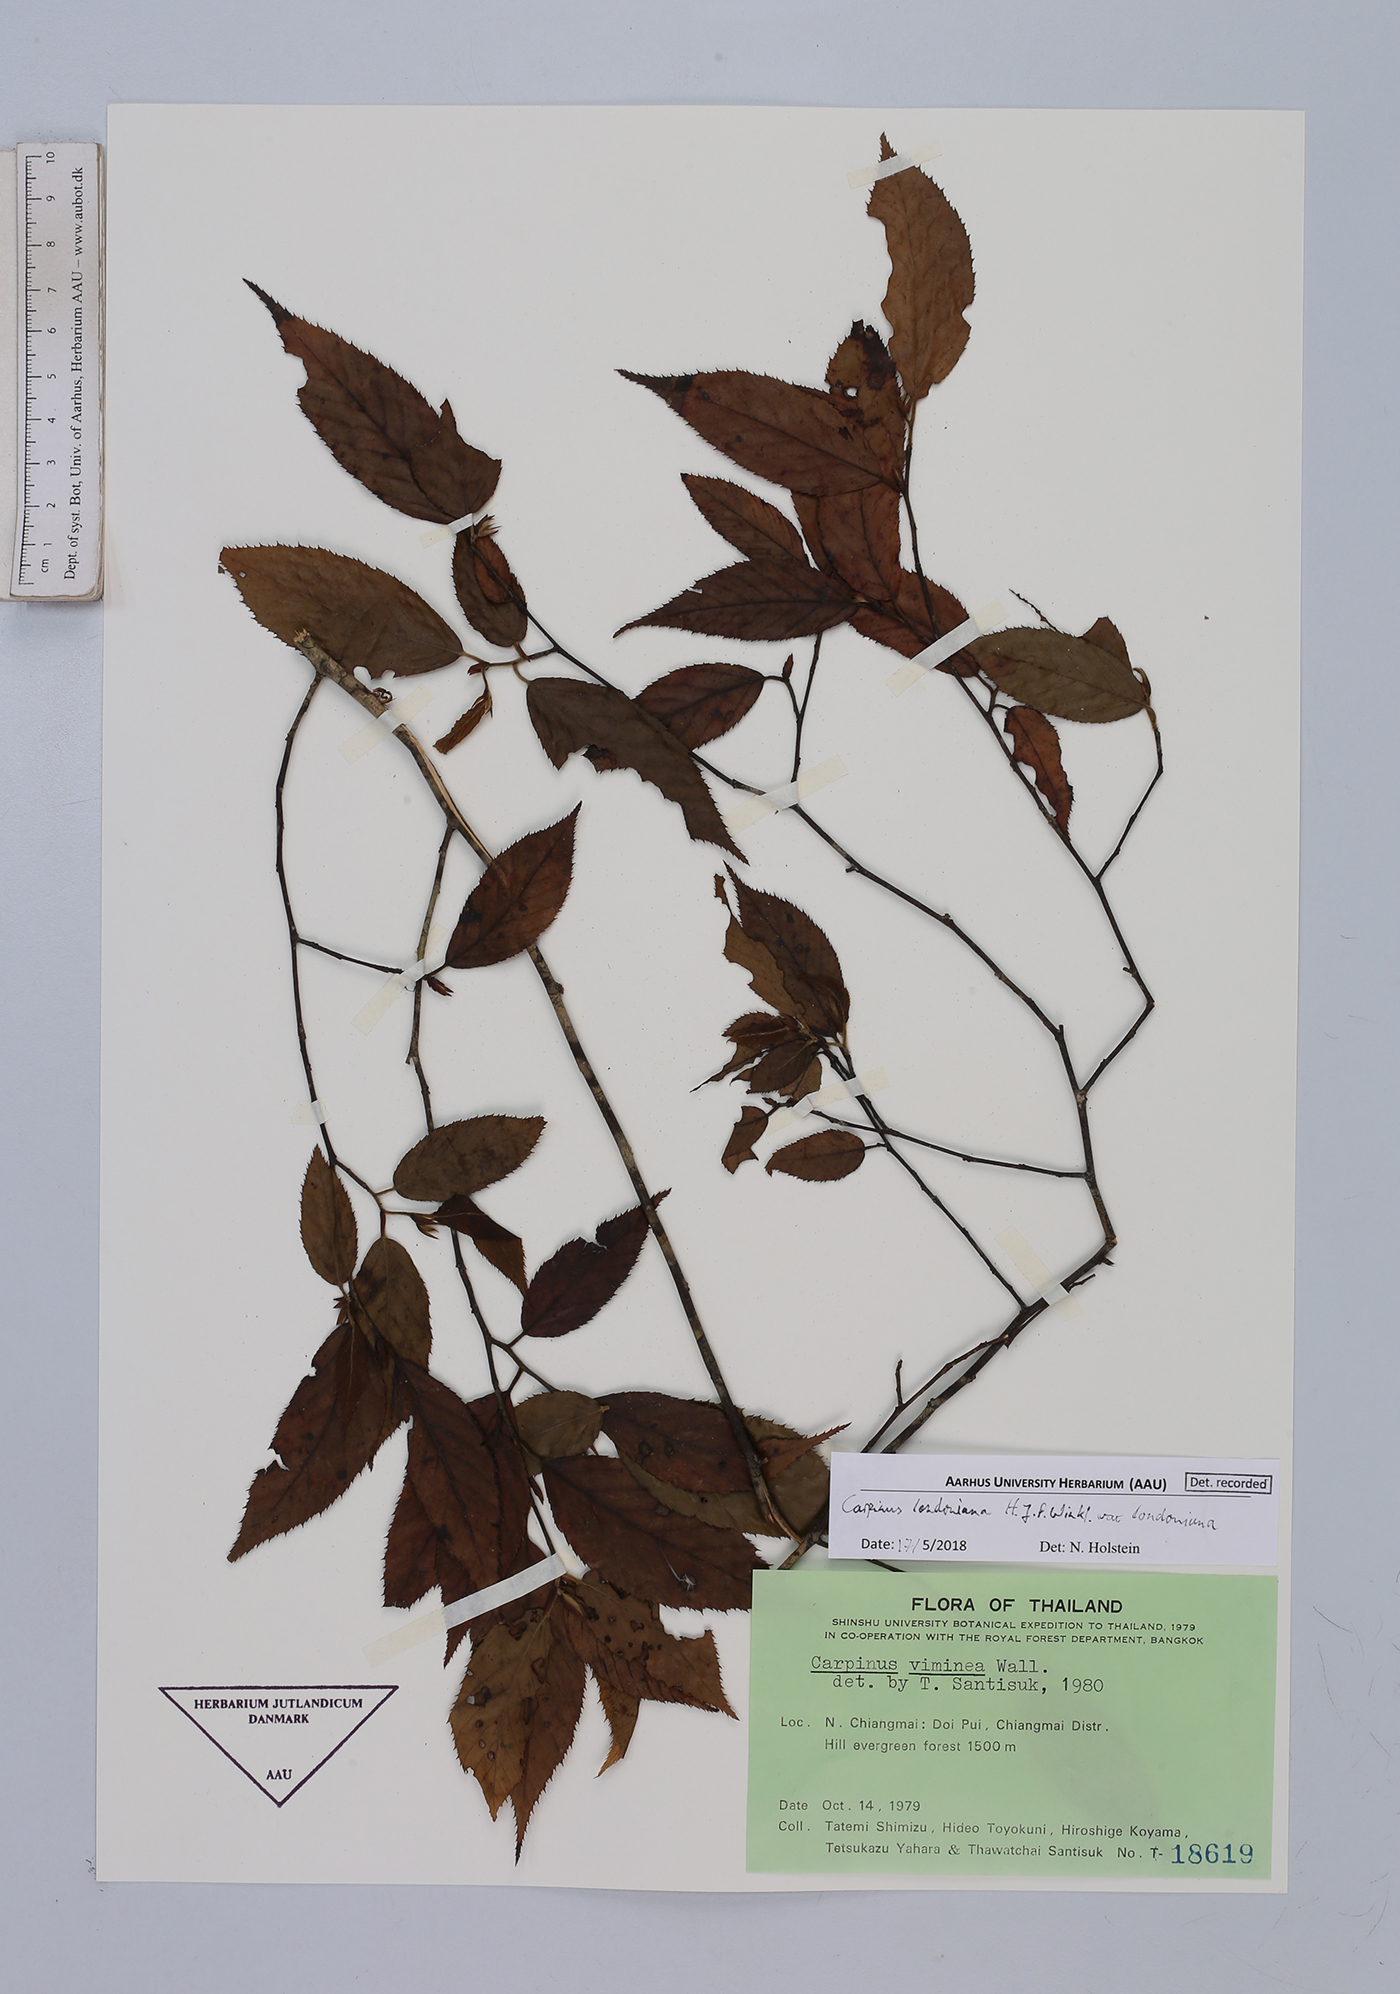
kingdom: Plantae
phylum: Tracheophyta
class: Magnoliopsida
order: Fagales
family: Betulaceae
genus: Carpinus
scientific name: Carpinus londoniana
